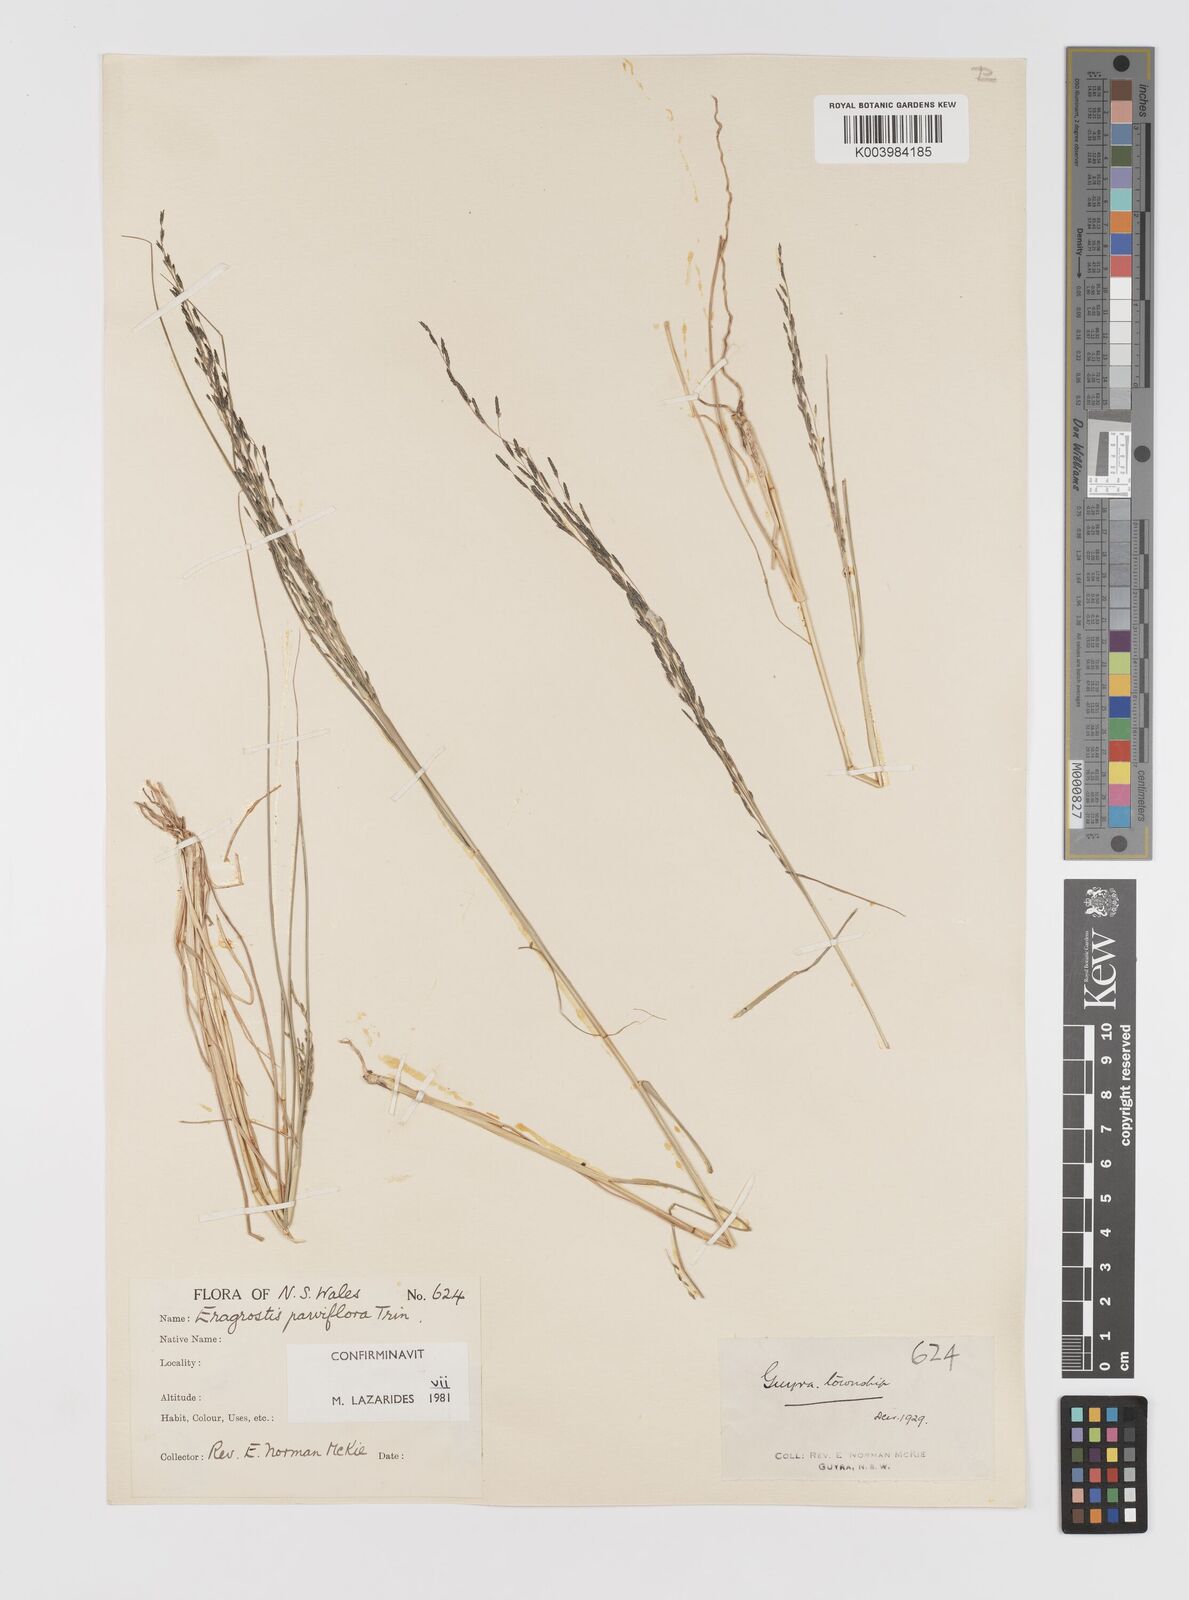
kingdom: Plantae
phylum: Tracheophyta
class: Liliopsida
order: Poales
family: Poaceae
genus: Eragrostis
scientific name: Eragrostis parviflora
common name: Weeping love-grass
